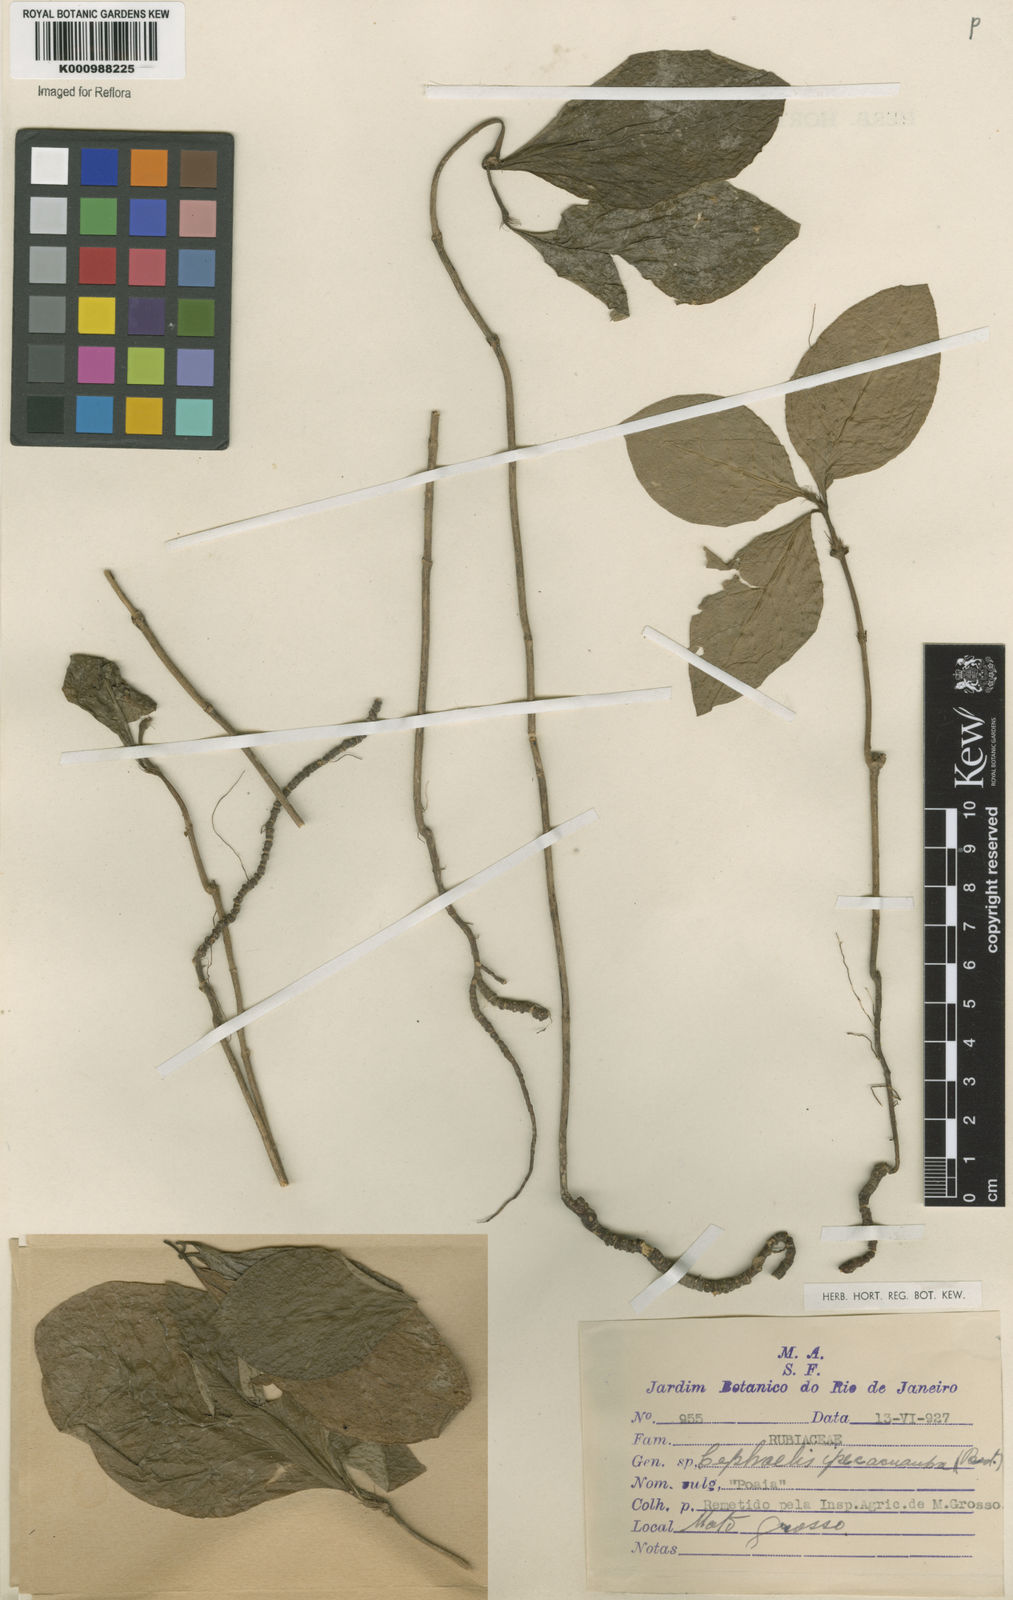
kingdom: Plantae
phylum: Tracheophyta
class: Magnoliopsida
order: Gentianales
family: Rubiaceae
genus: Carapichea
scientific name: Carapichea ipecacuanha
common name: Ipecac
